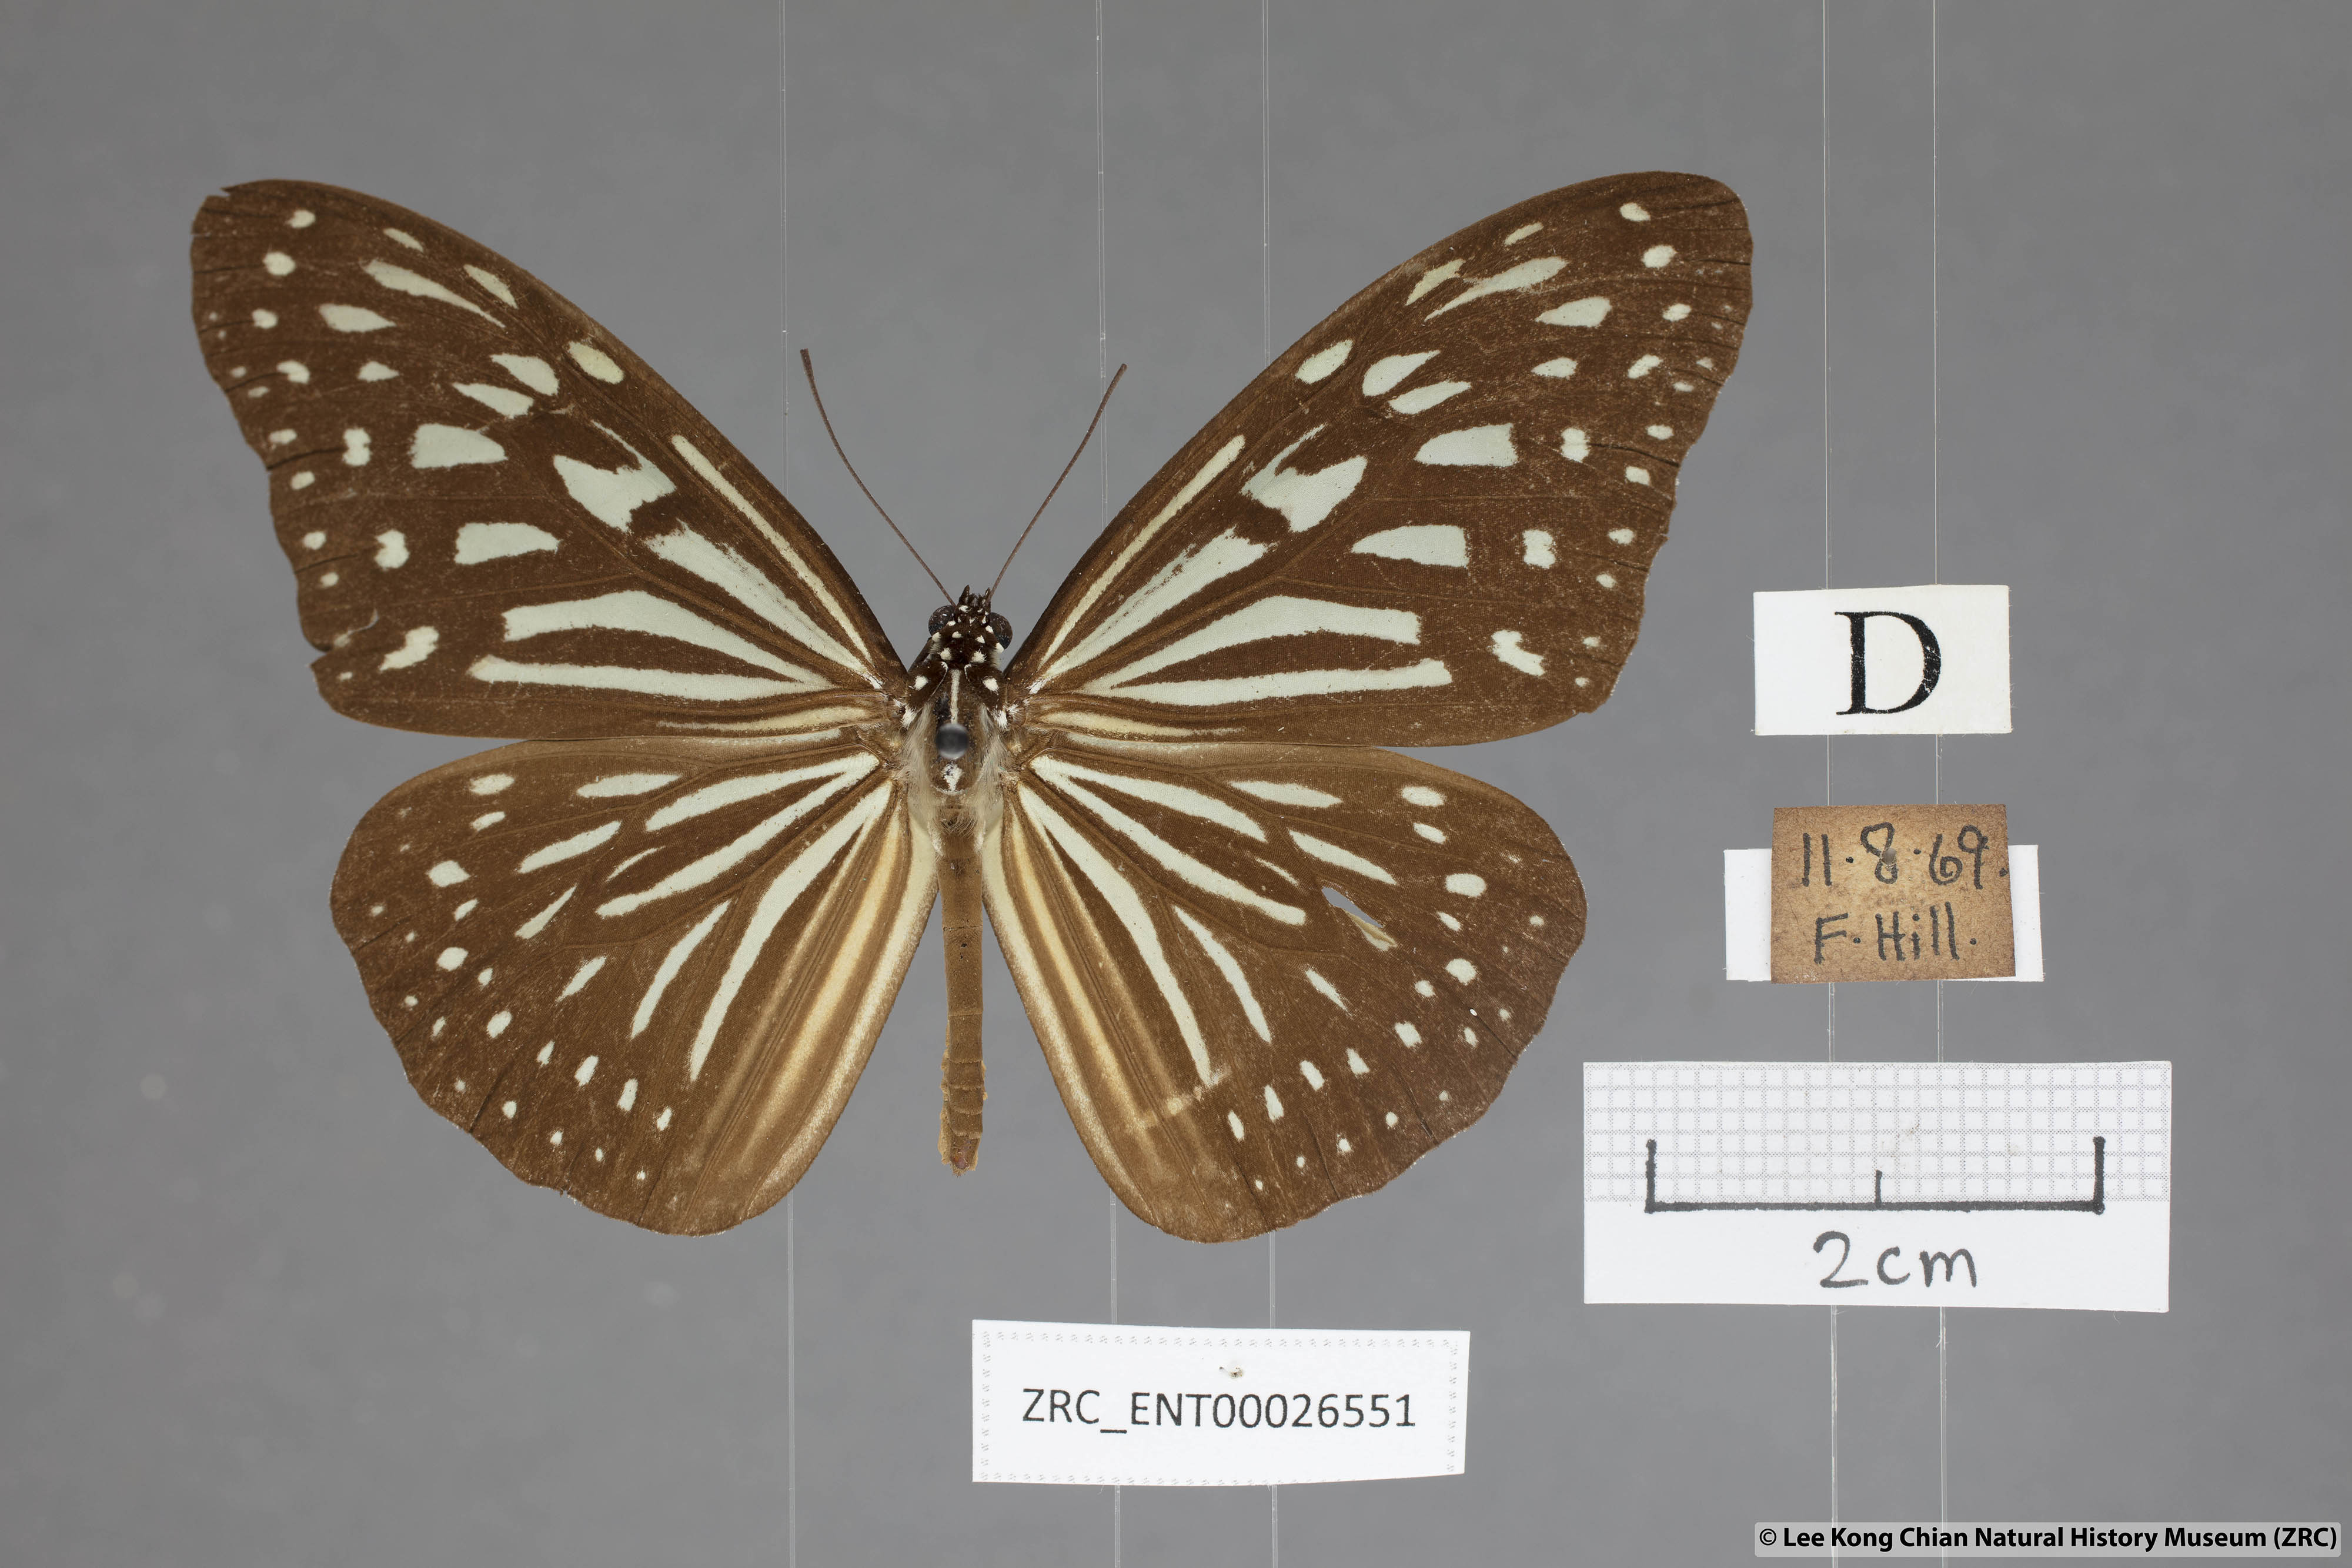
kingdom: Animalia
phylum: Arthropoda
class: Insecta
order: Lepidoptera
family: Nymphalidae
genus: Ideopsis
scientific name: Ideopsis vulgaris
